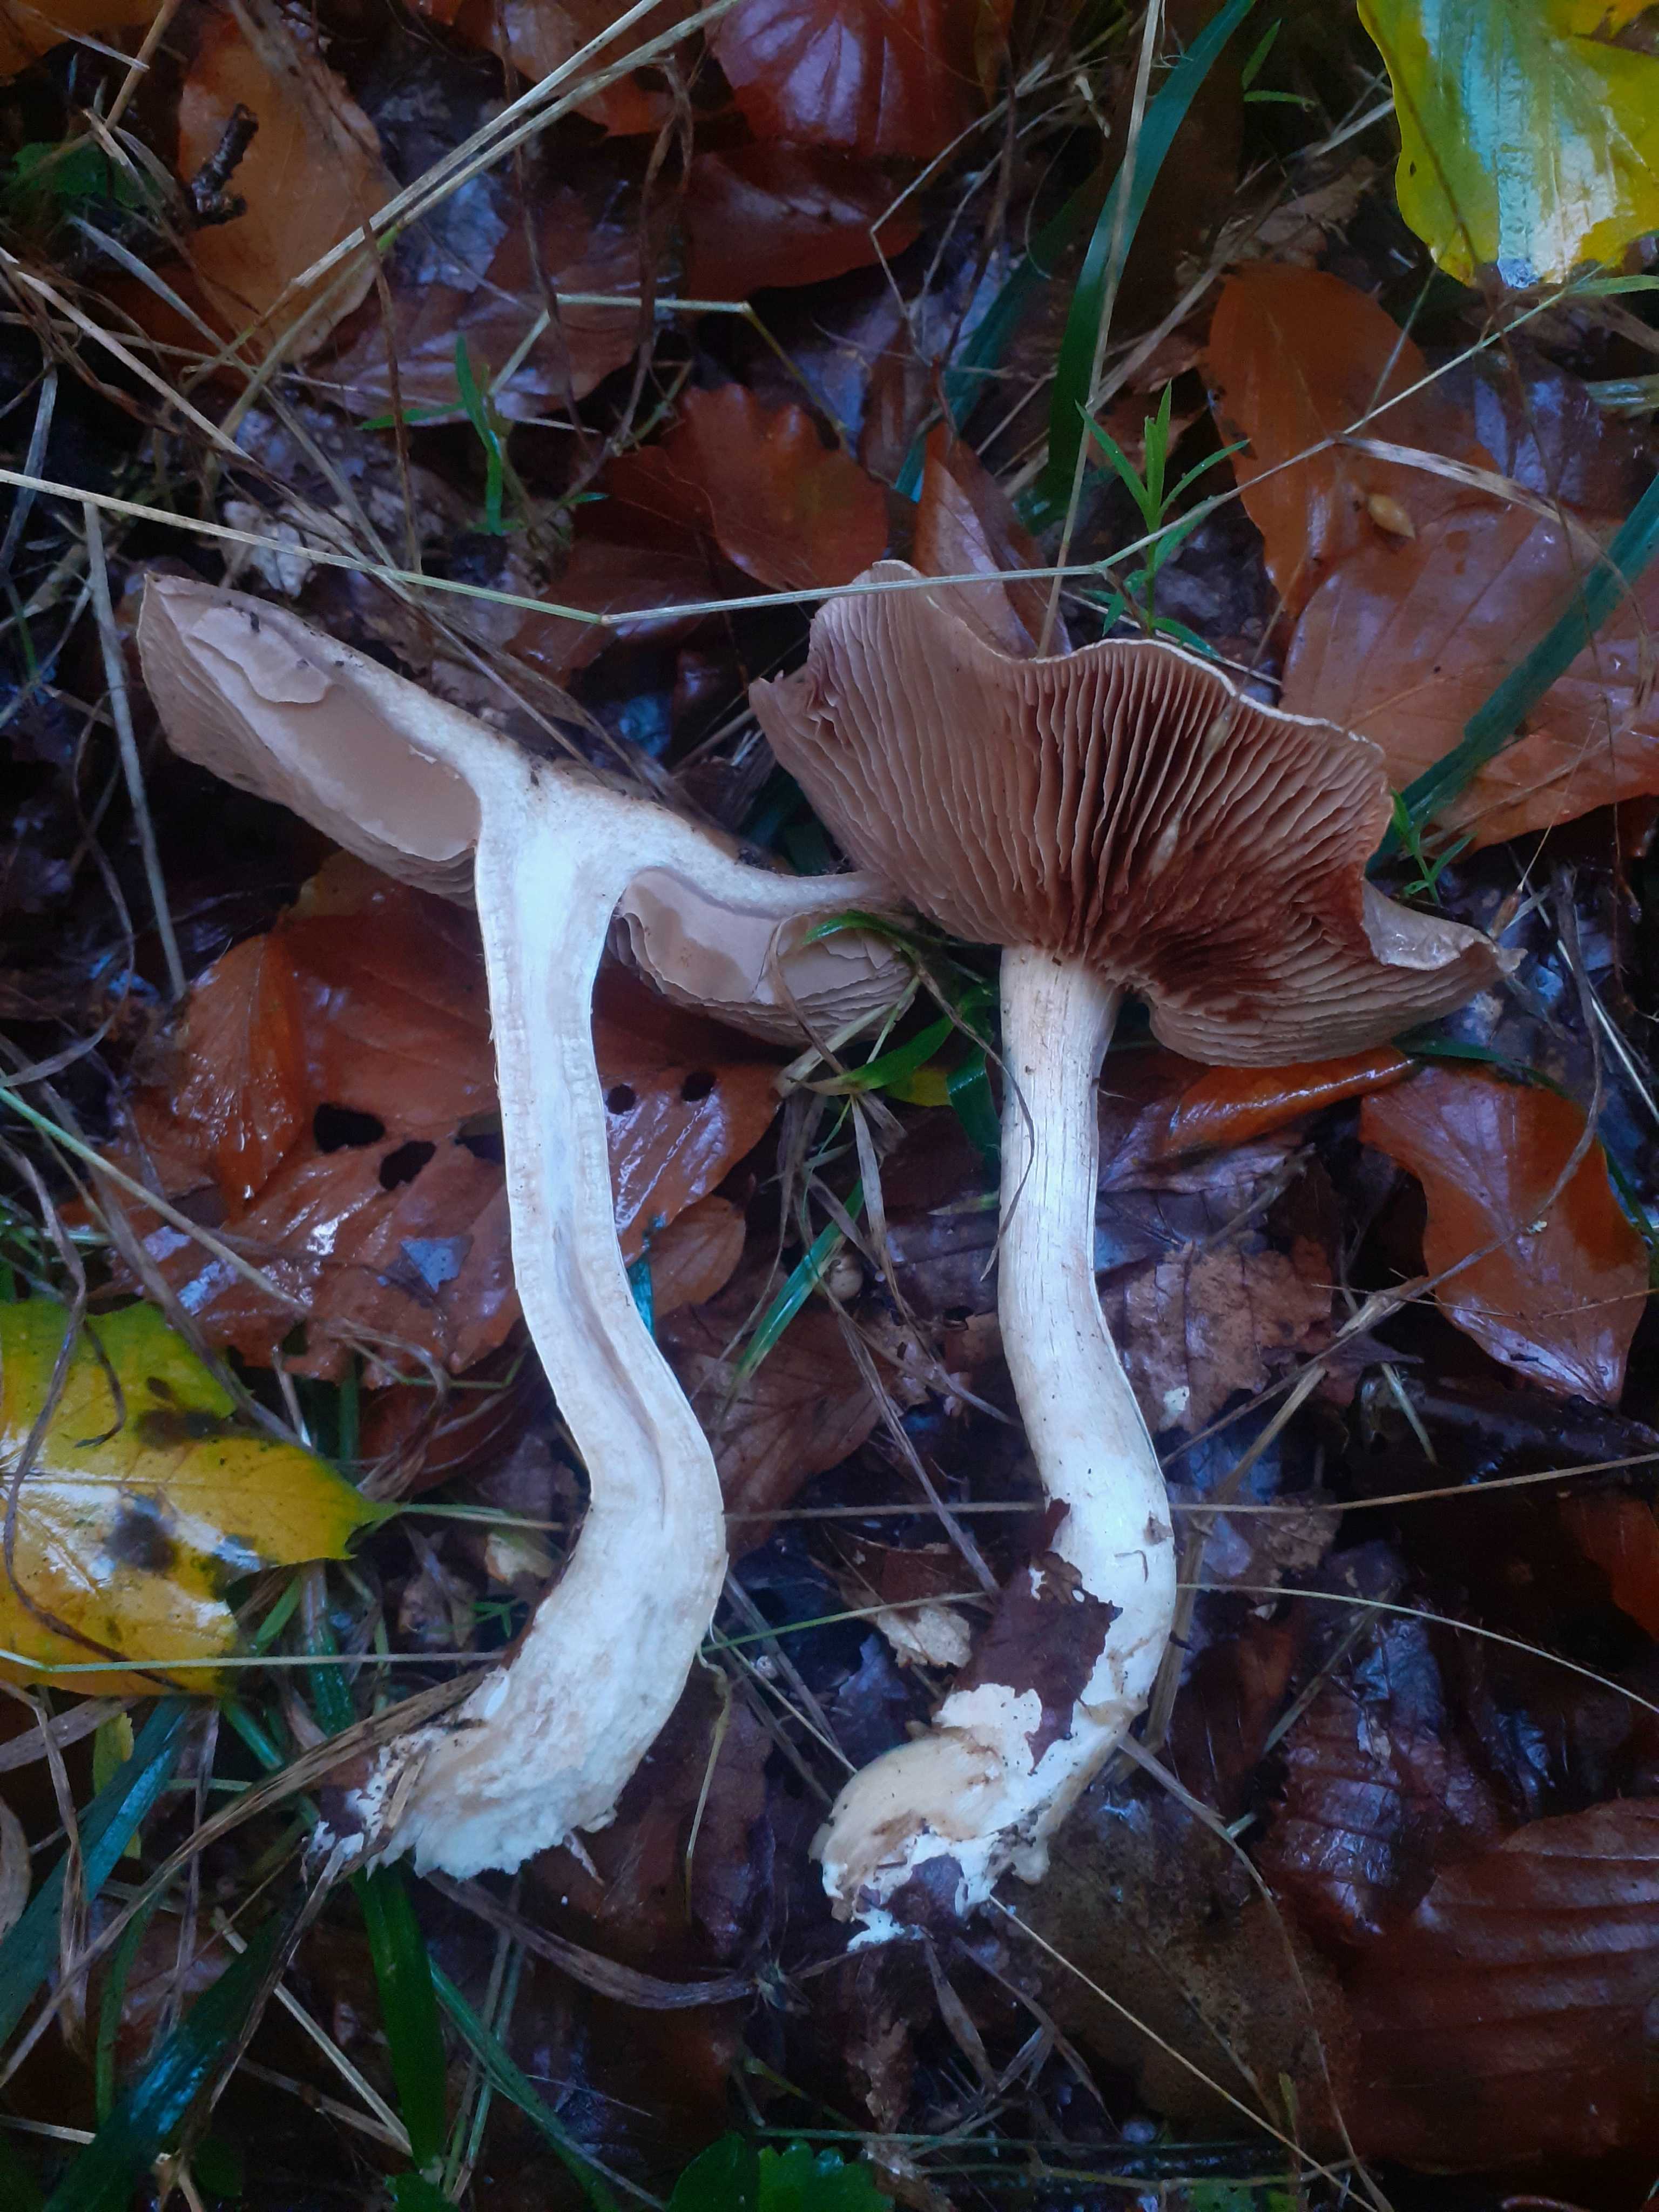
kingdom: Fungi
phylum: Basidiomycota
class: Agaricomycetes
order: Agaricales
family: Hymenogastraceae
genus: Hebeloma
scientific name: Hebeloma
